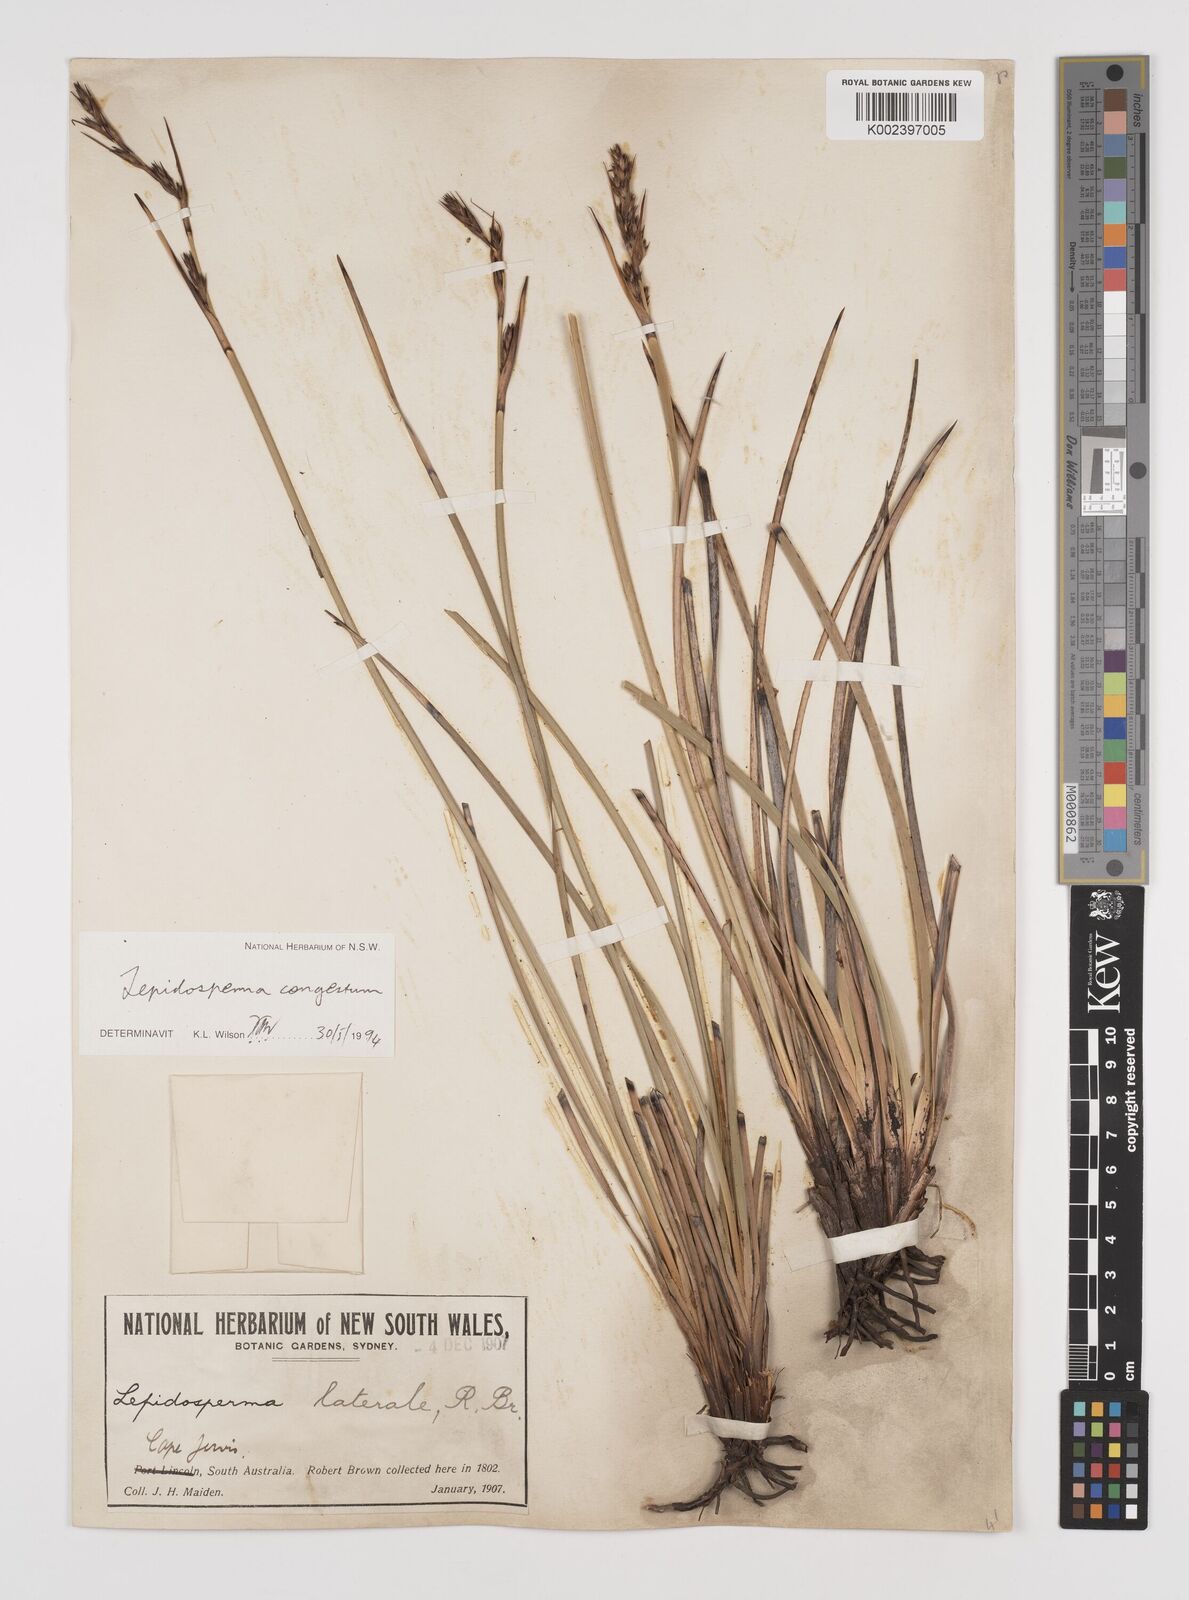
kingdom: Plantae
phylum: Tracheophyta
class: Liliopsida
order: Poales
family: Cyperaceae
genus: Lepidosperma
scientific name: Lepidosperma congestum
